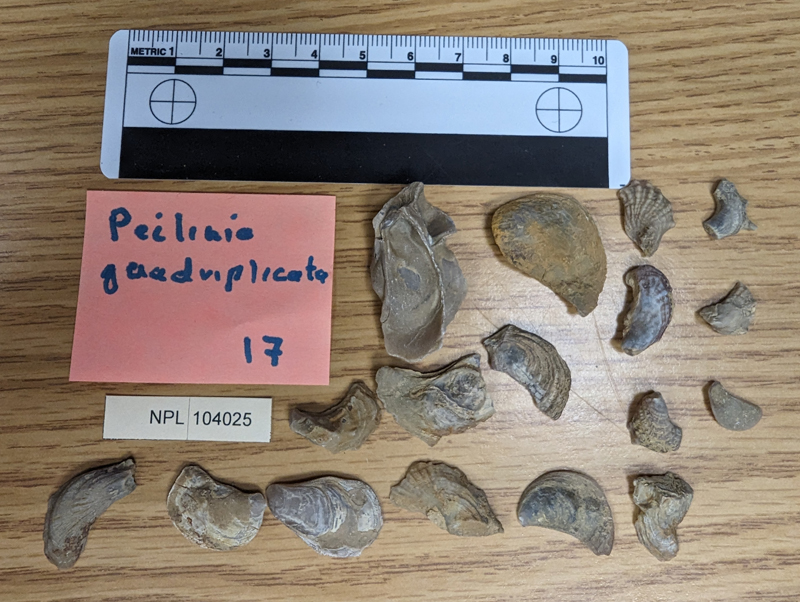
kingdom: Animalia
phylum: Mollusca
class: Bivalvia
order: Ostreida
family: Ostreidae
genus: Peilinia
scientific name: Peilinia Ostrea quadriplicata
